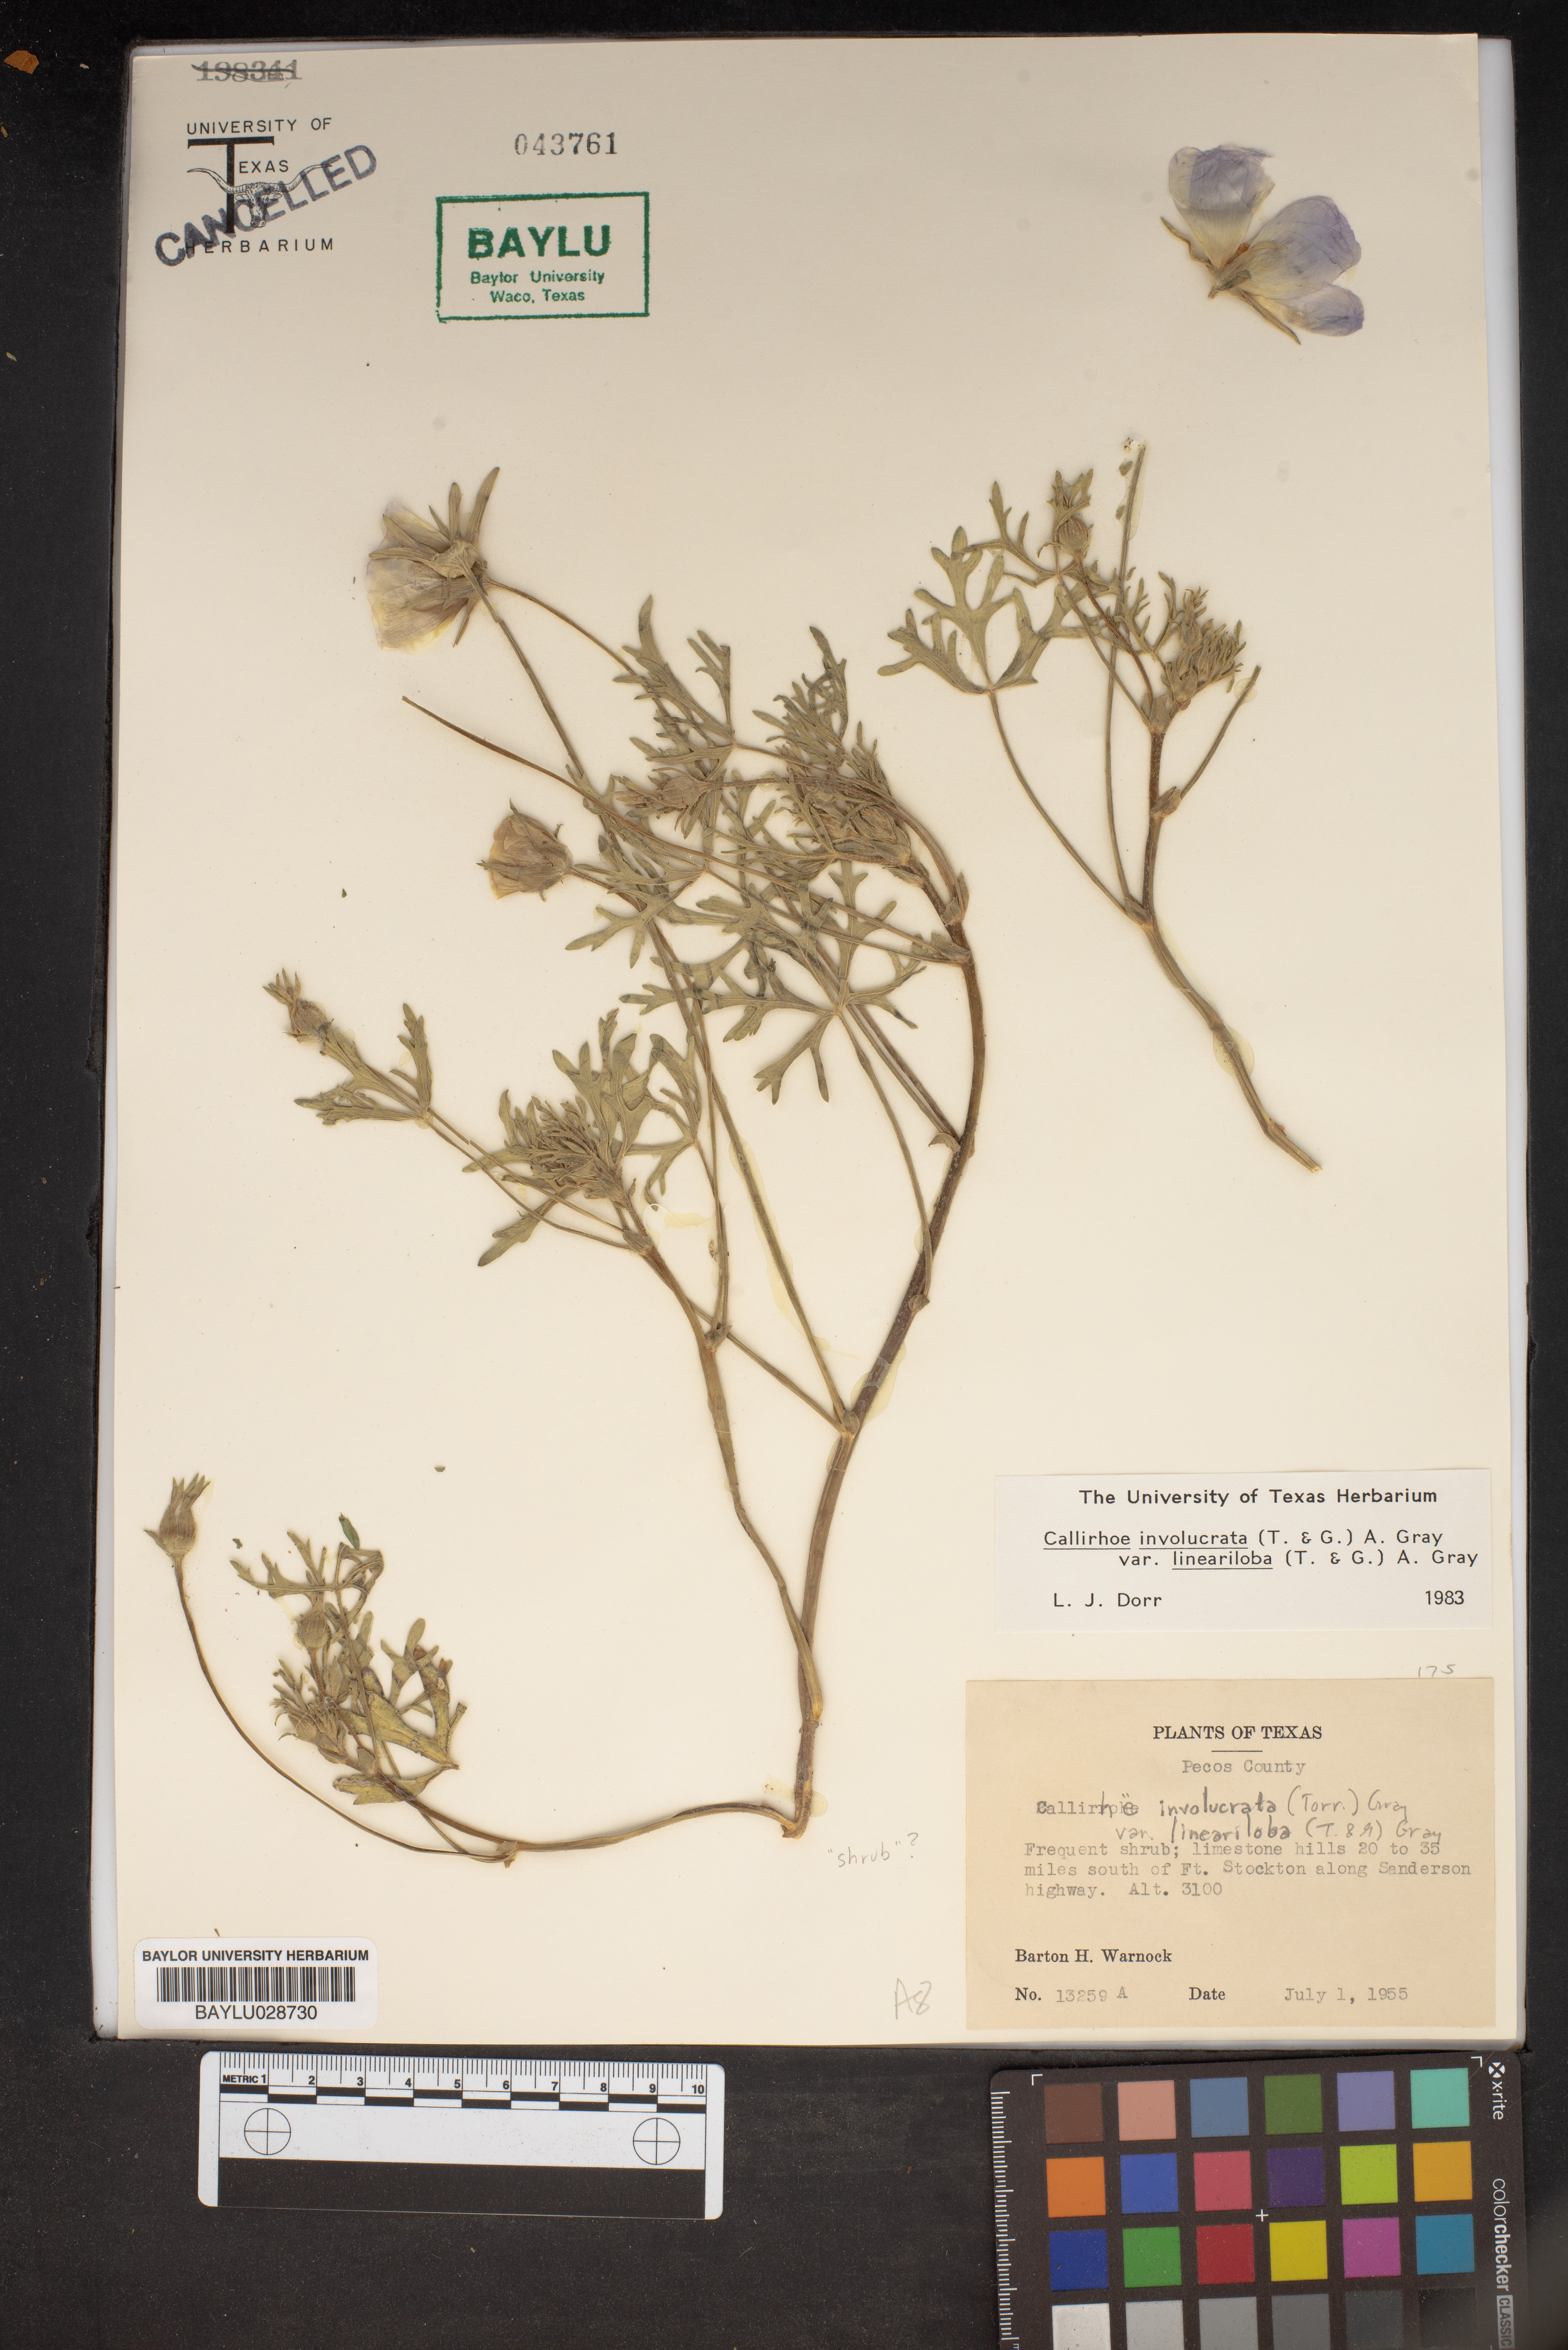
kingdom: Plantae
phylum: Tracheophyta
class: Magnoliopsida
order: Malvales
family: Malvaceae
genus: Callirhoe
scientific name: Callirhoe involucrata
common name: Purple poppy-mallow
